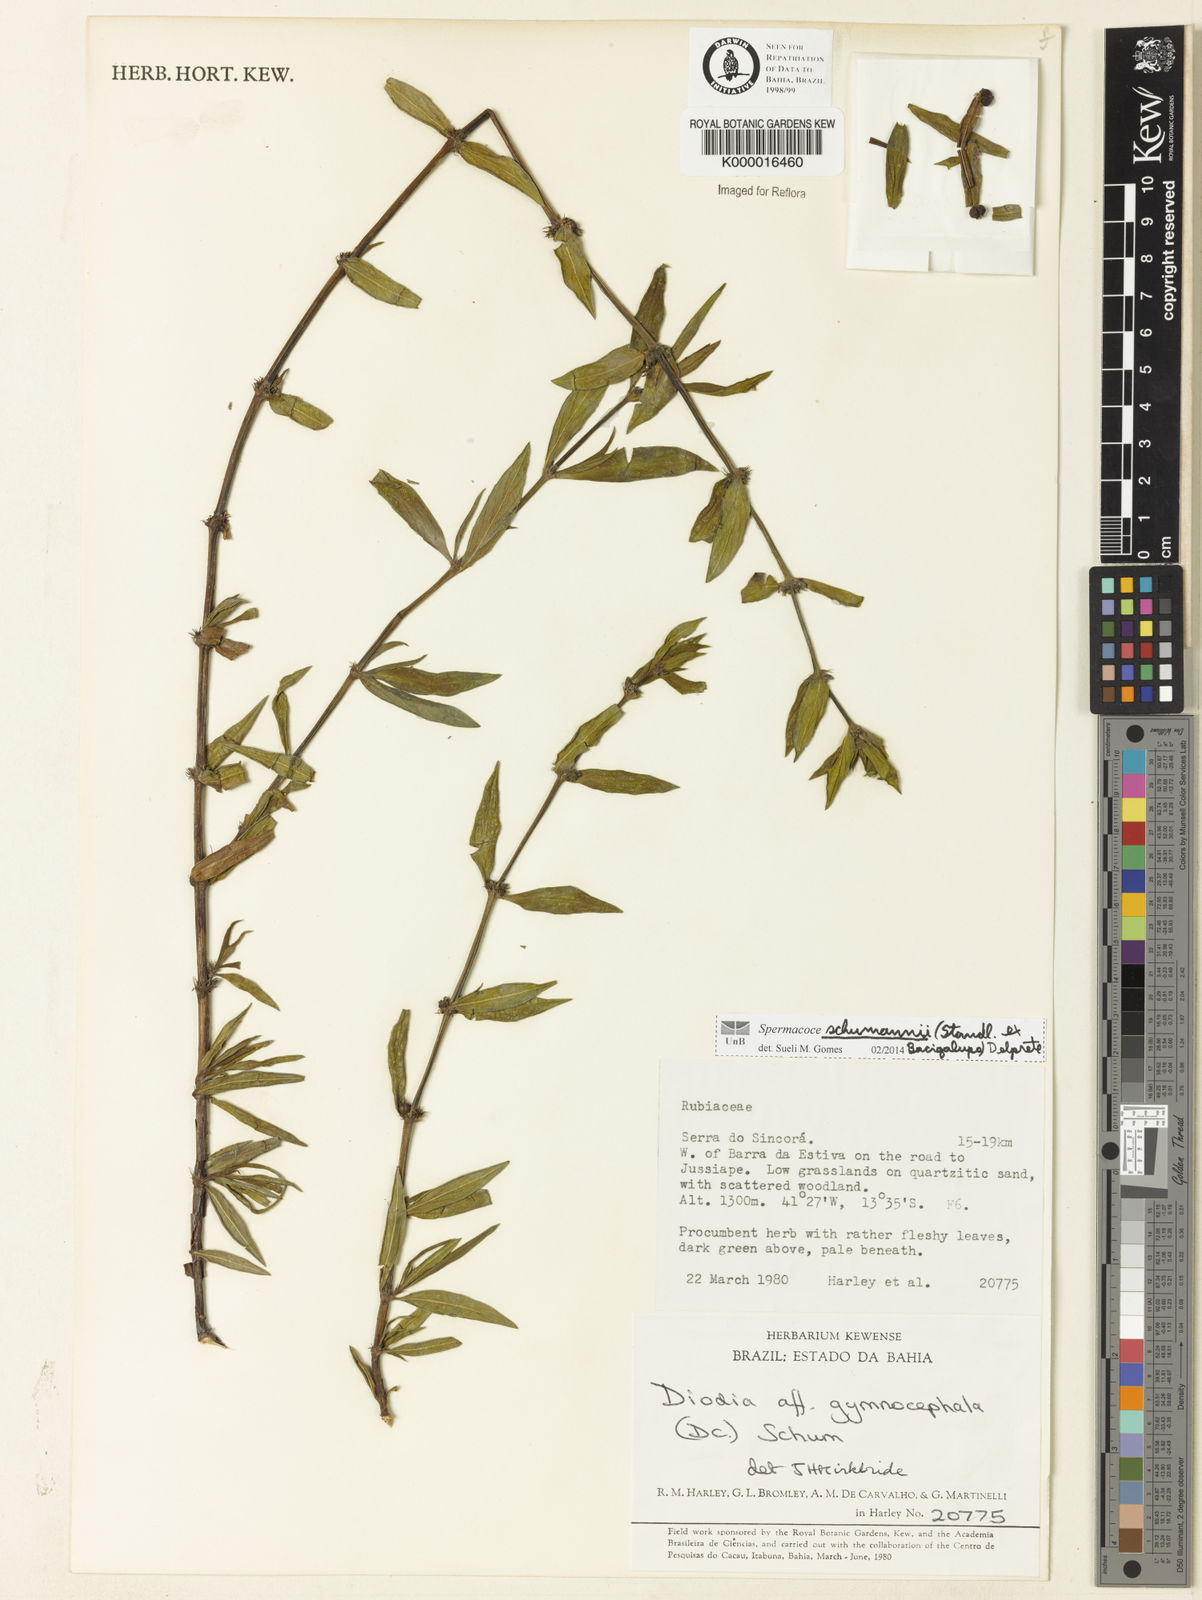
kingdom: Plantae
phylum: Tracheophyta
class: Magnoliopsida
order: Gentianales
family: Rubiaceae
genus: Galianthe
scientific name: Galianthe palustris
